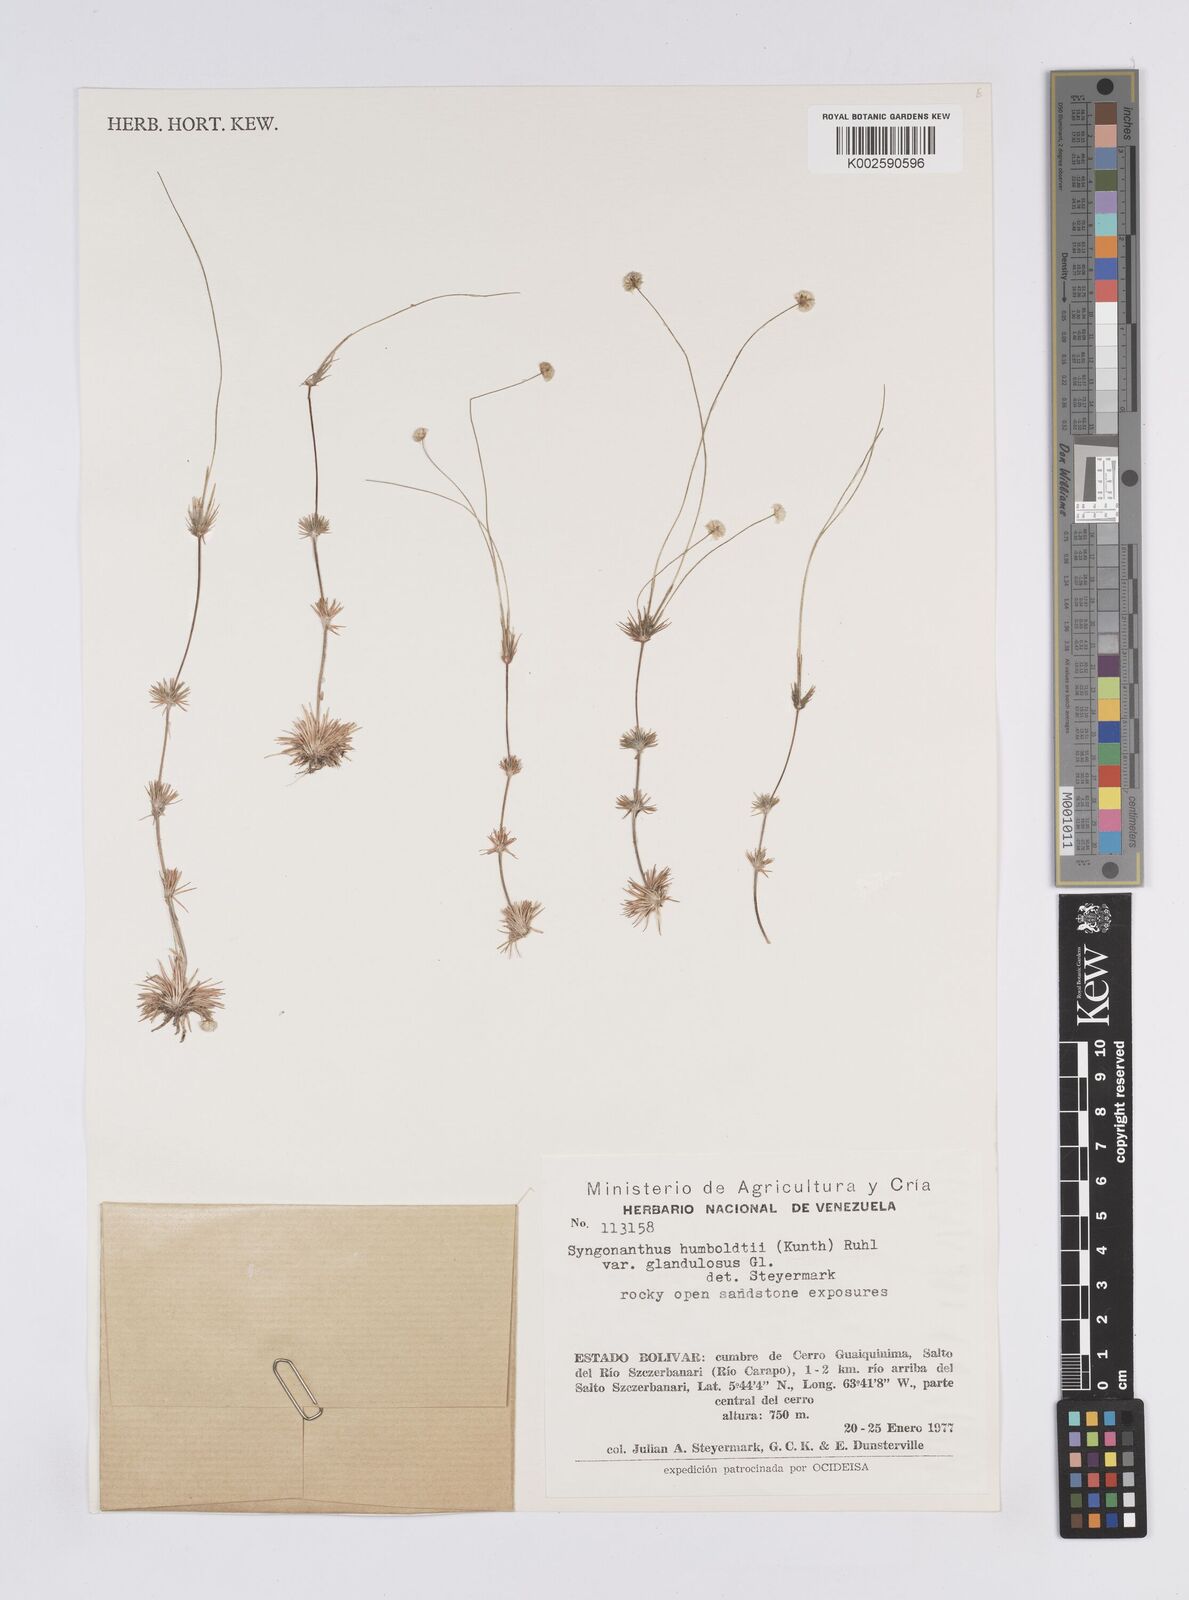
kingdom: Plantae
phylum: Tracheophyta
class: Liliopsida
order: Poales
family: Eriocaulaceae
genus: Syngonanthus
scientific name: Syngonanthus humboldtii
